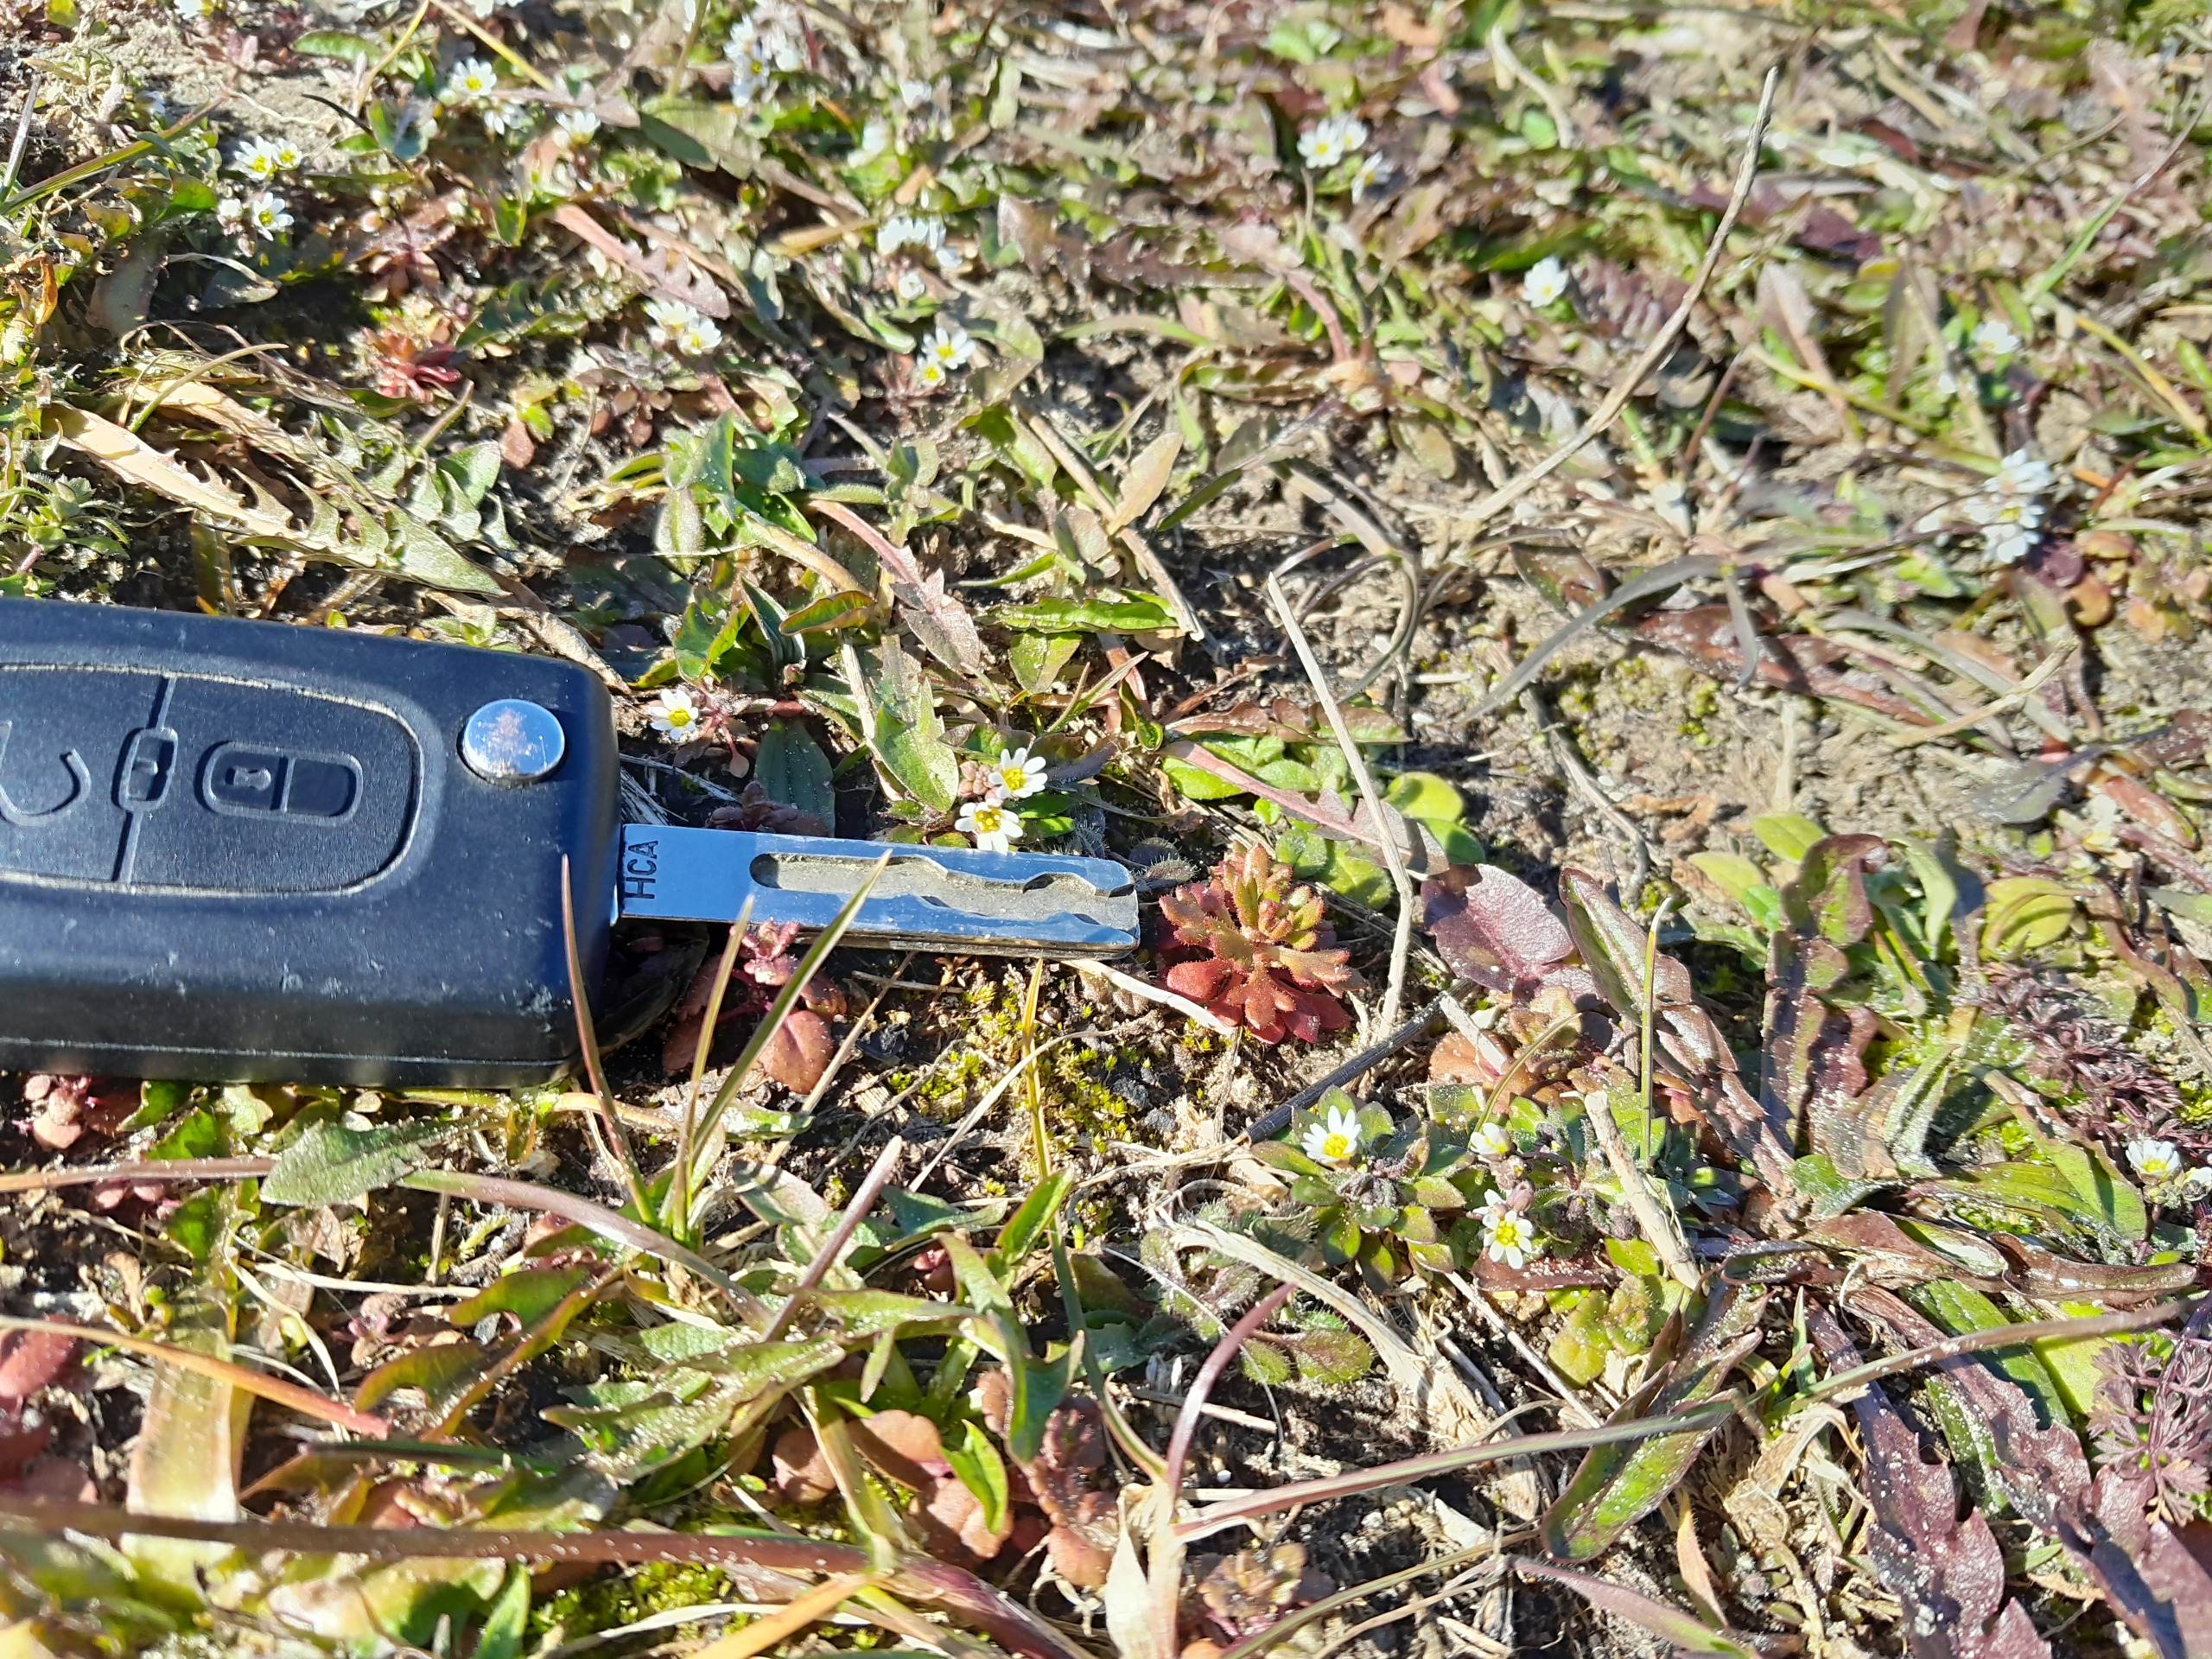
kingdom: Plantae
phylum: Tracheophyta
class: Magnoliopsida
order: Saxifragales
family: Saxifragaceae
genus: Saxifraga
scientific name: Saxifraga tridactylites
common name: Trekløft-stenbræk
